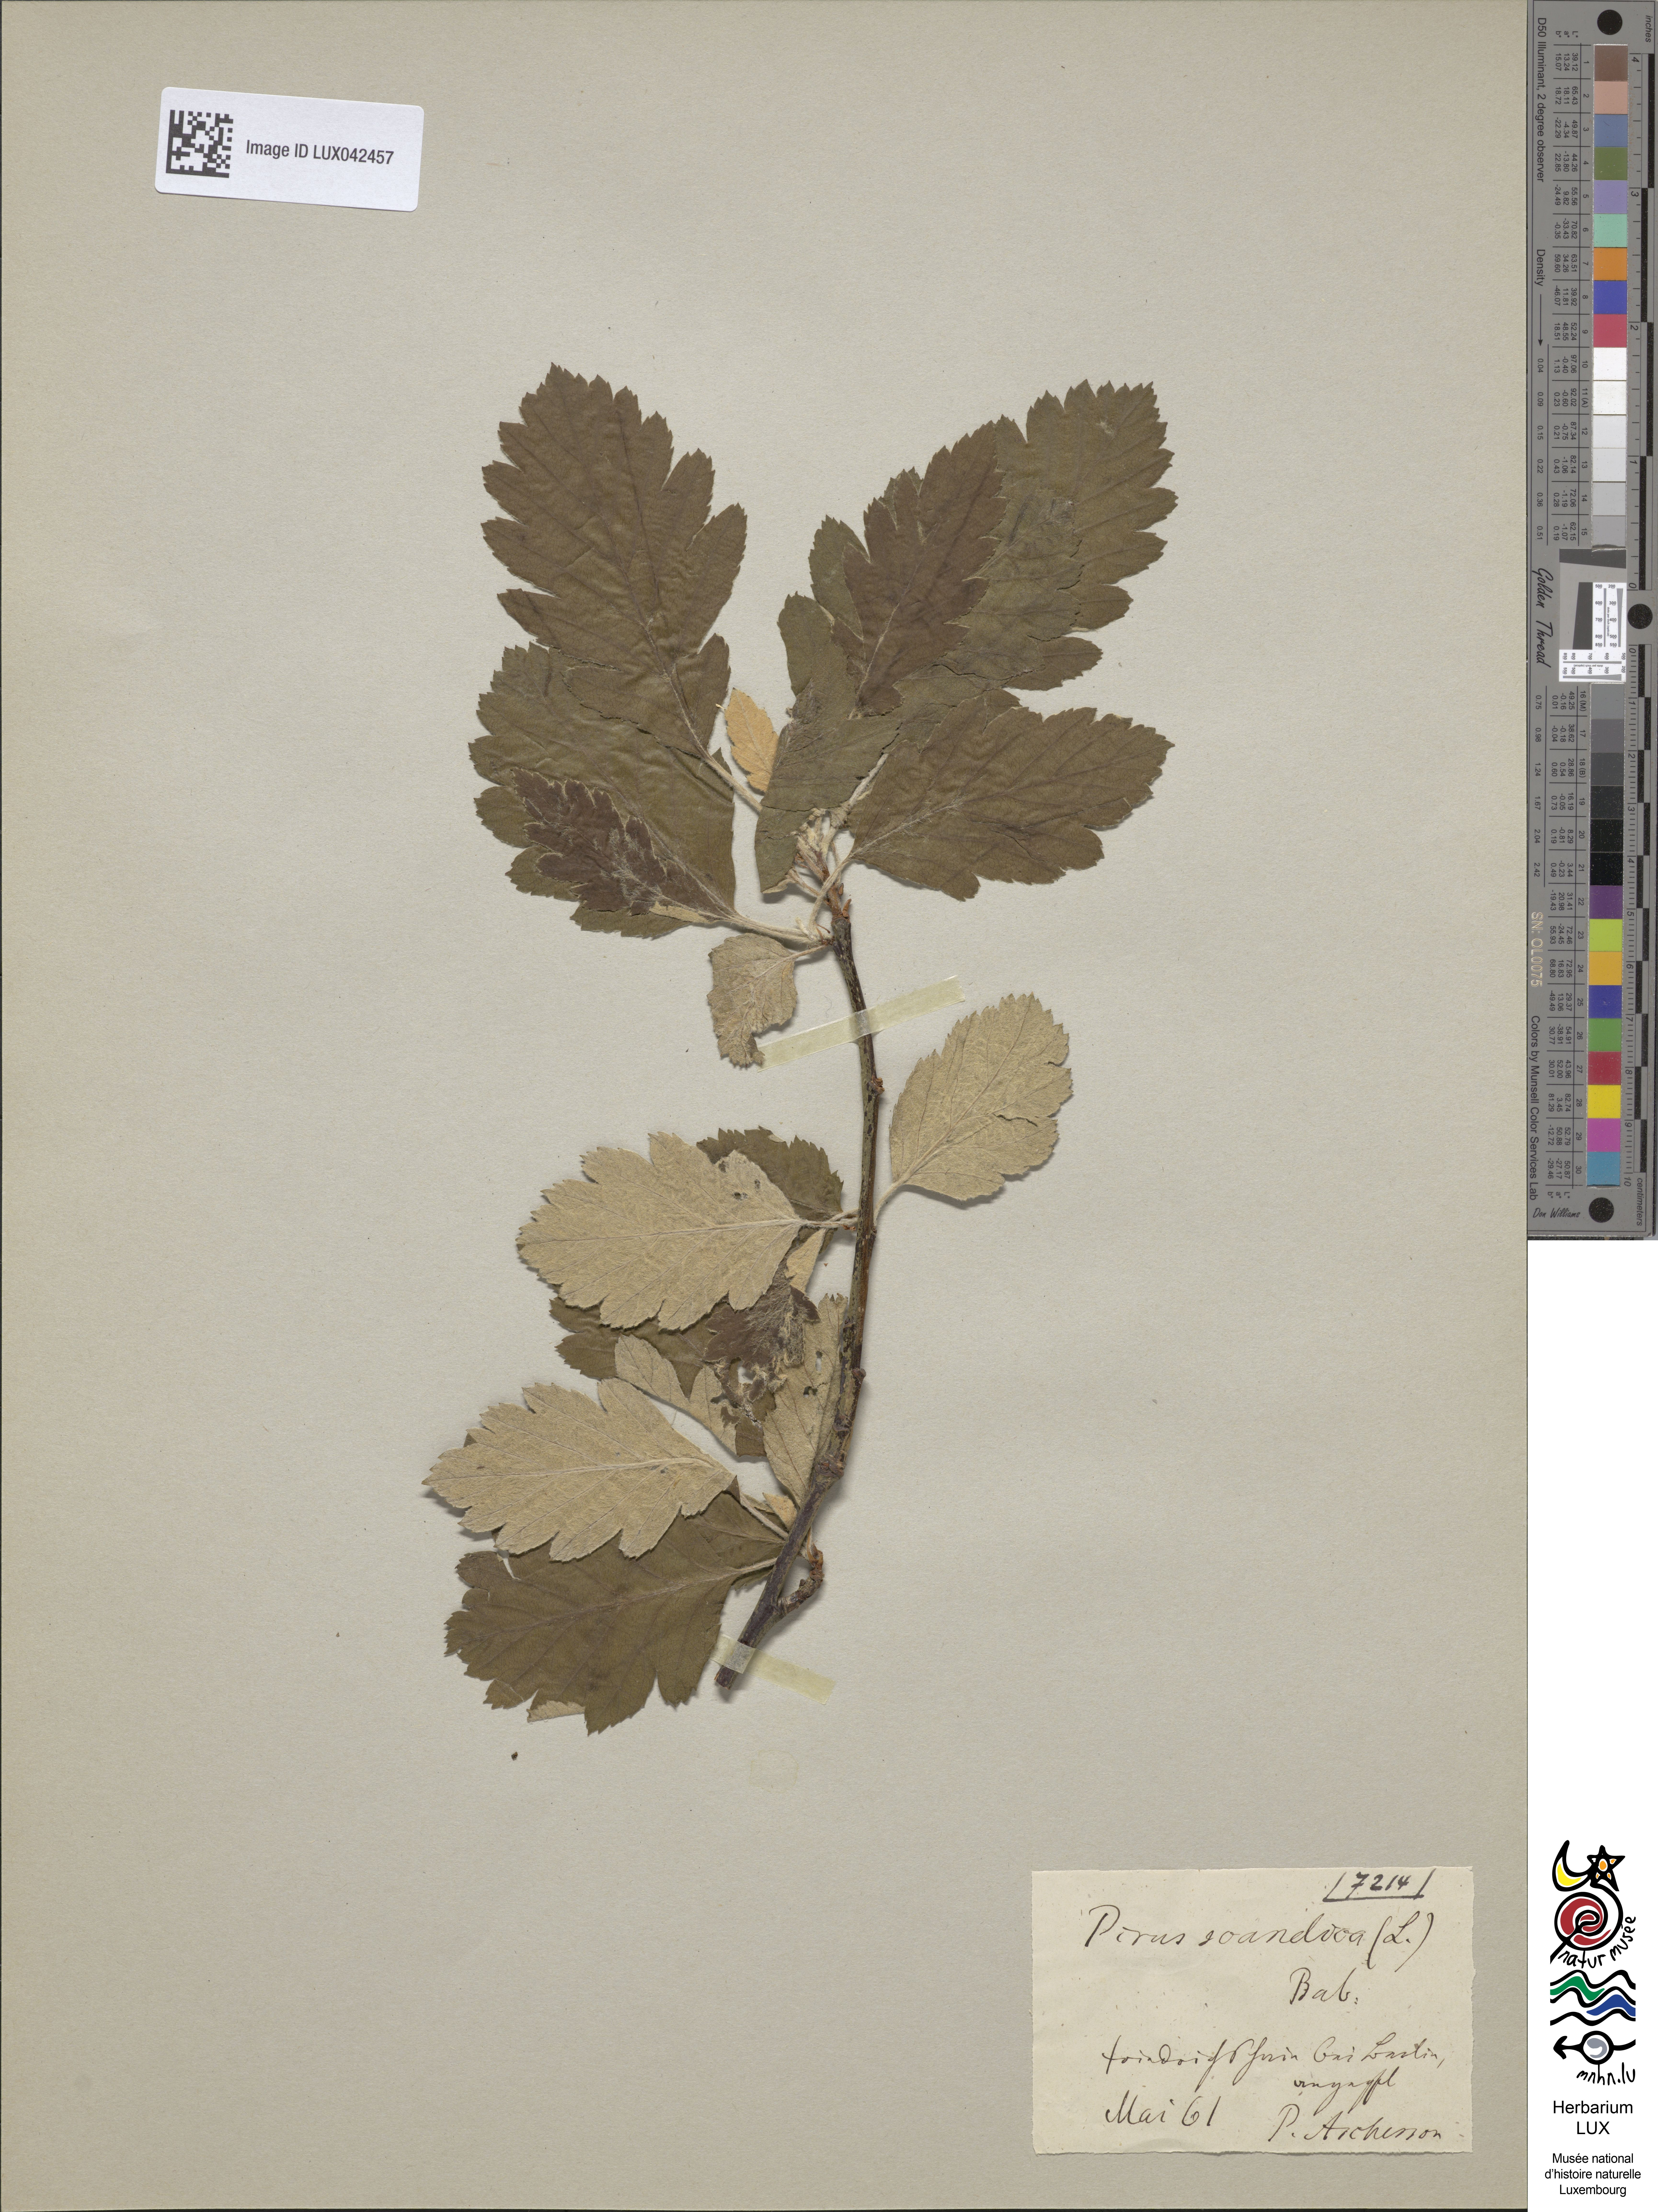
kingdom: Plantae
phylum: Tracheophyta
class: Magnoliopsida
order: Rosales
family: Rosaceae
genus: Scandosorbus
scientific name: Scandosorbus intermedia
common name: Swedish whitebeam
